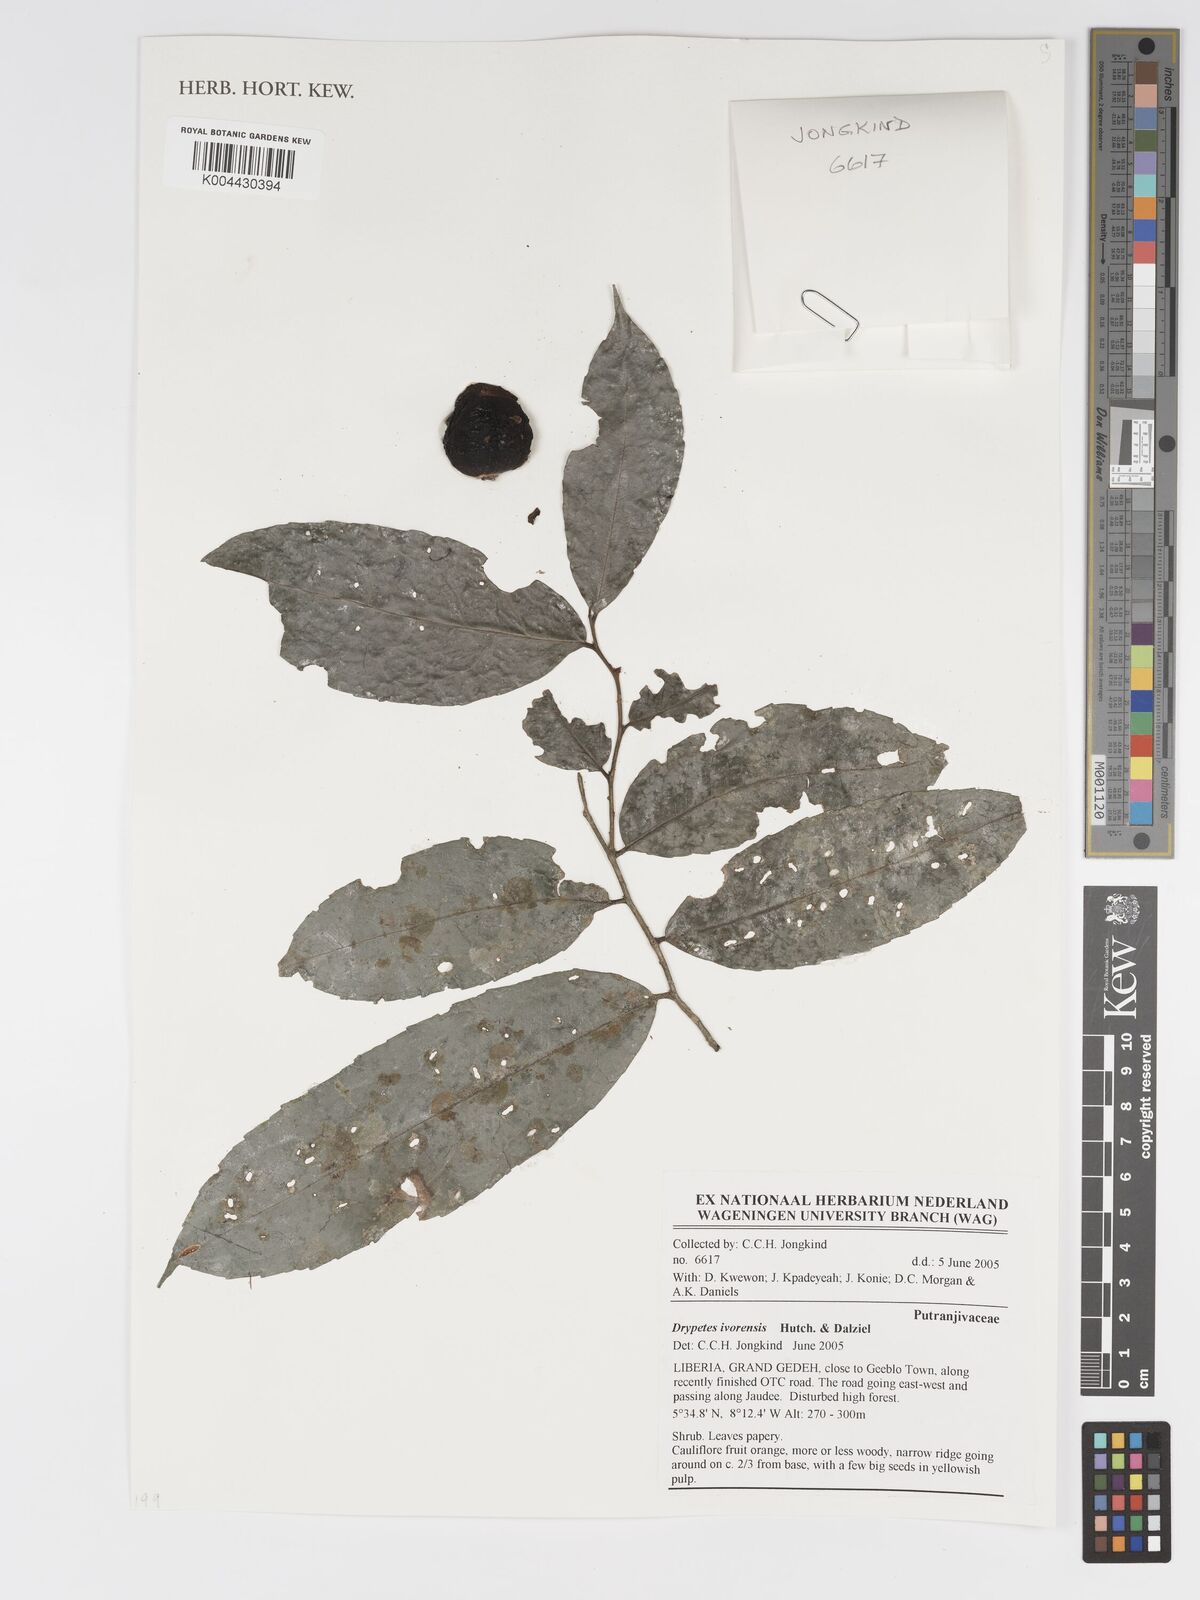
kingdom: Plantae
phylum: Tracheophyta
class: Magnoliopsida
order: Malpighiales
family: Putranjivaceae
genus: Drypetes
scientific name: Drypetes ivorensis
